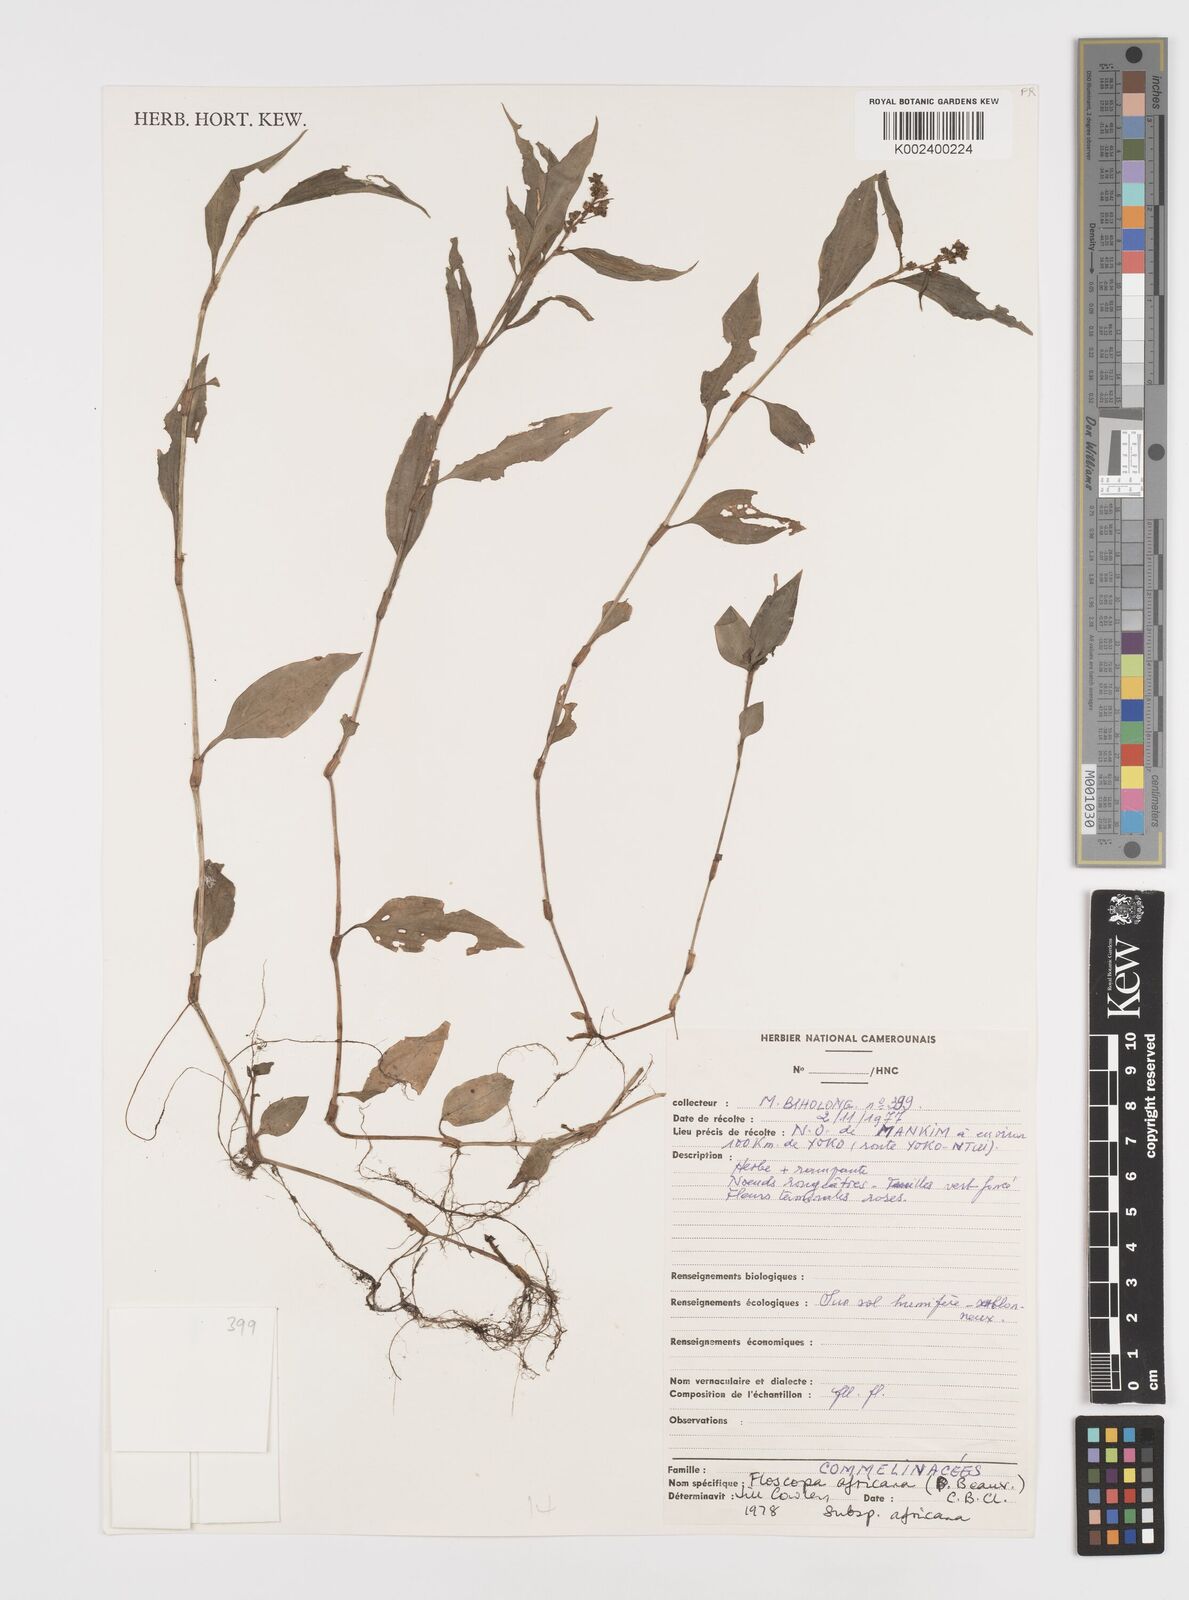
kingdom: Plantae
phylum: Tracheophyta
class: Liliopsida
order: Commelinales
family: Commelinaceae
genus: Floscopa
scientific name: Floscopa africana
